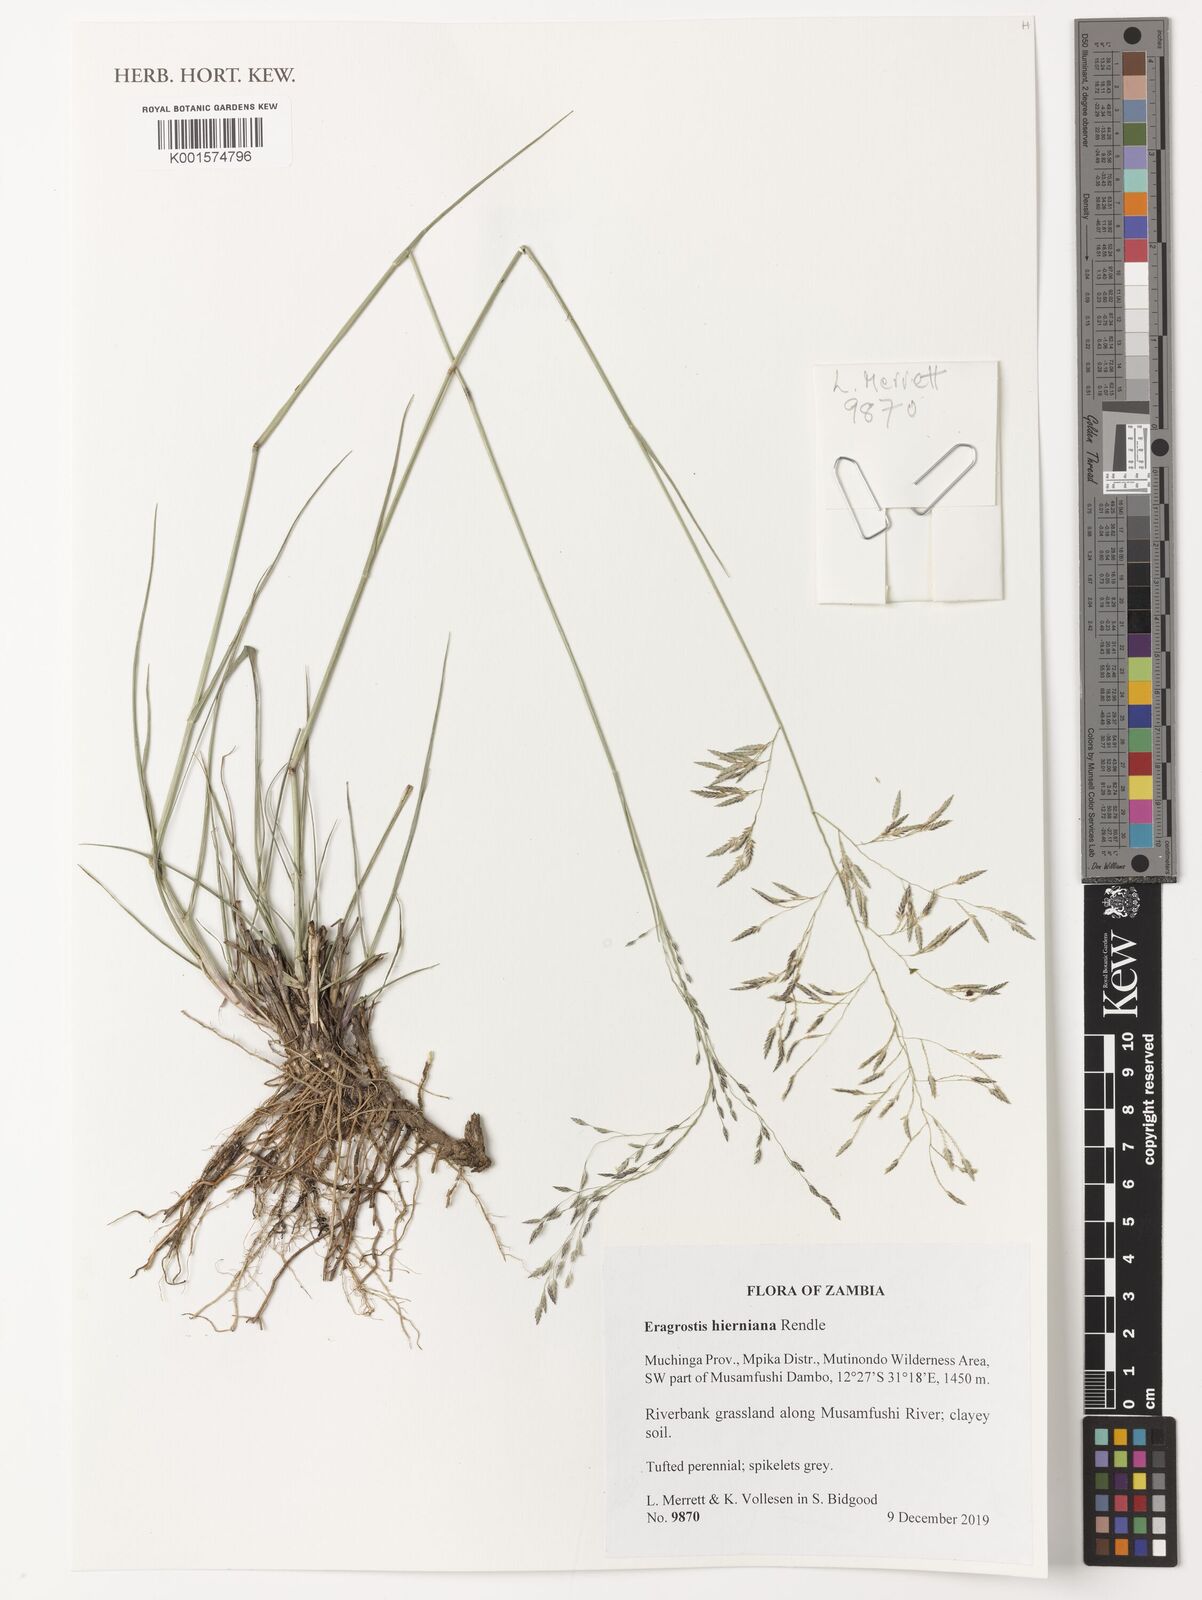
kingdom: Plantae
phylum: Tracheophyta
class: Liliopsida
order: Poales
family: Poaceae
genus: Eragrostis
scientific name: Eragrostis hierniana
